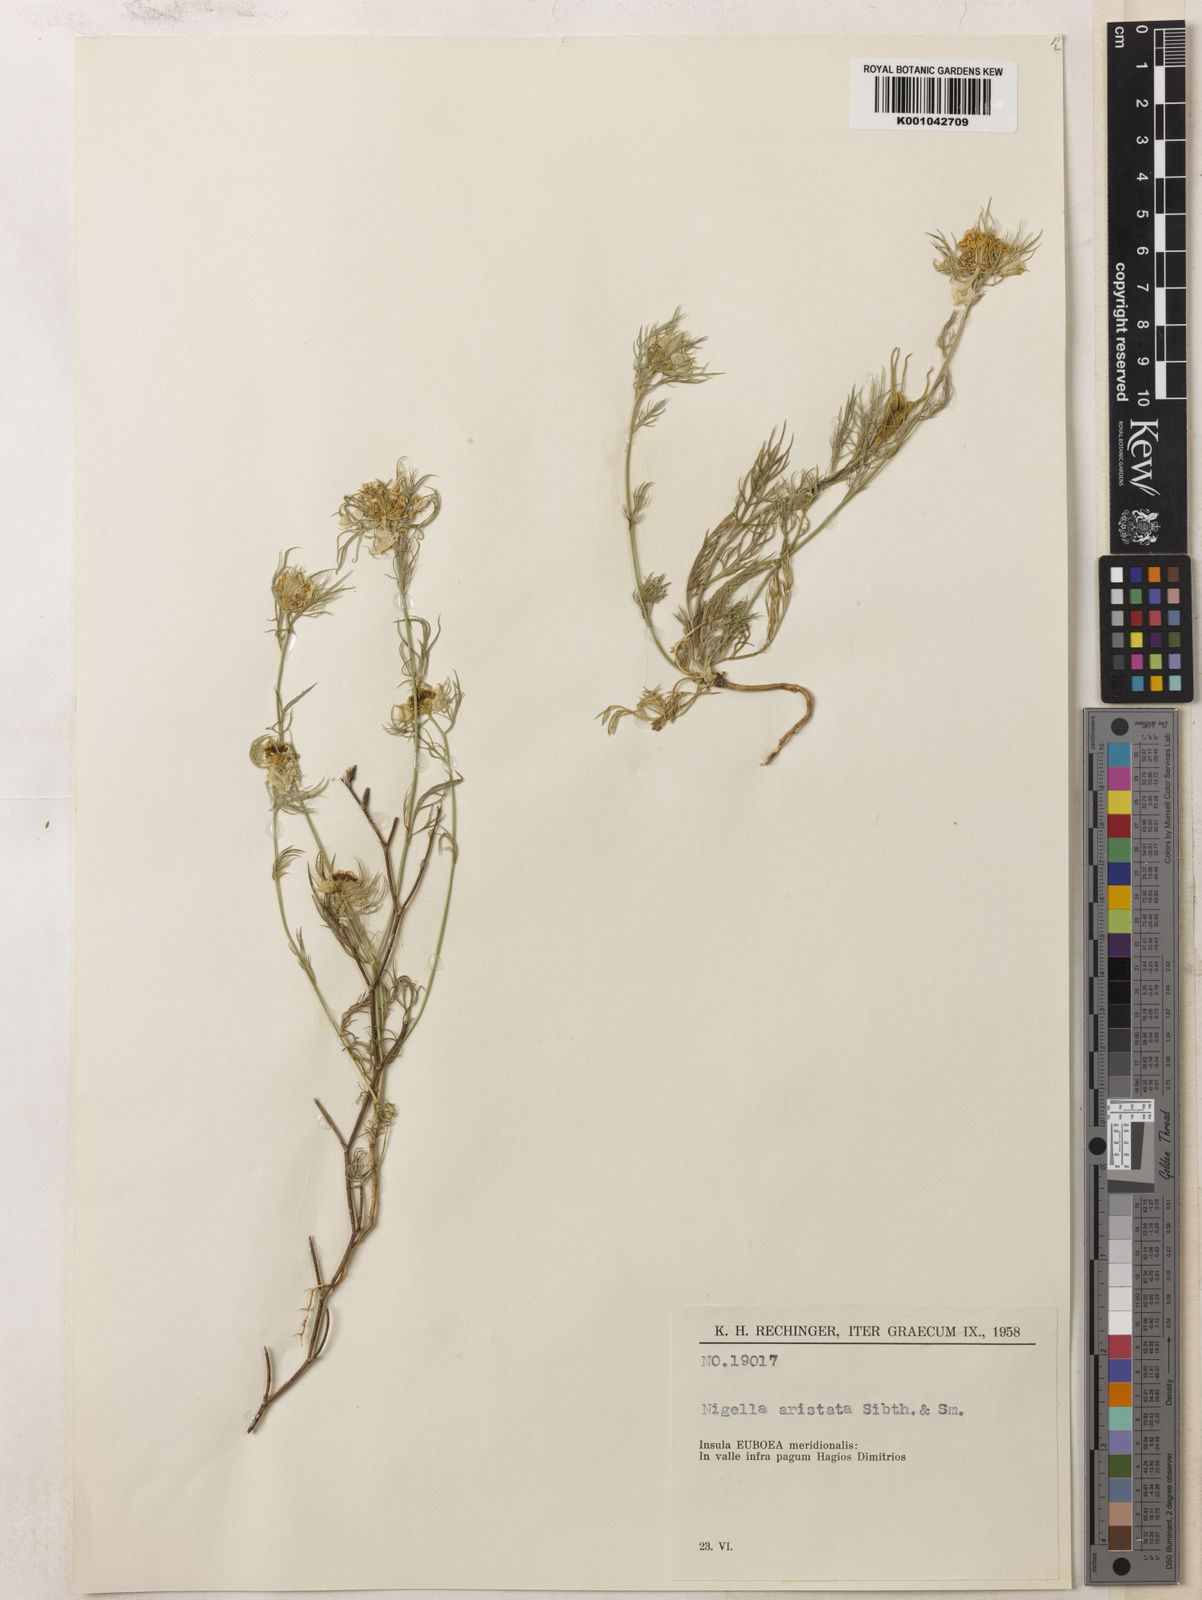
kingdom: Plantae
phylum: Tracheophyta
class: Magnoliopsida
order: Ranunculales
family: Ranunculaceae
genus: Nigella
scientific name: Nigella arvensis
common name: Wild fennel-flower
